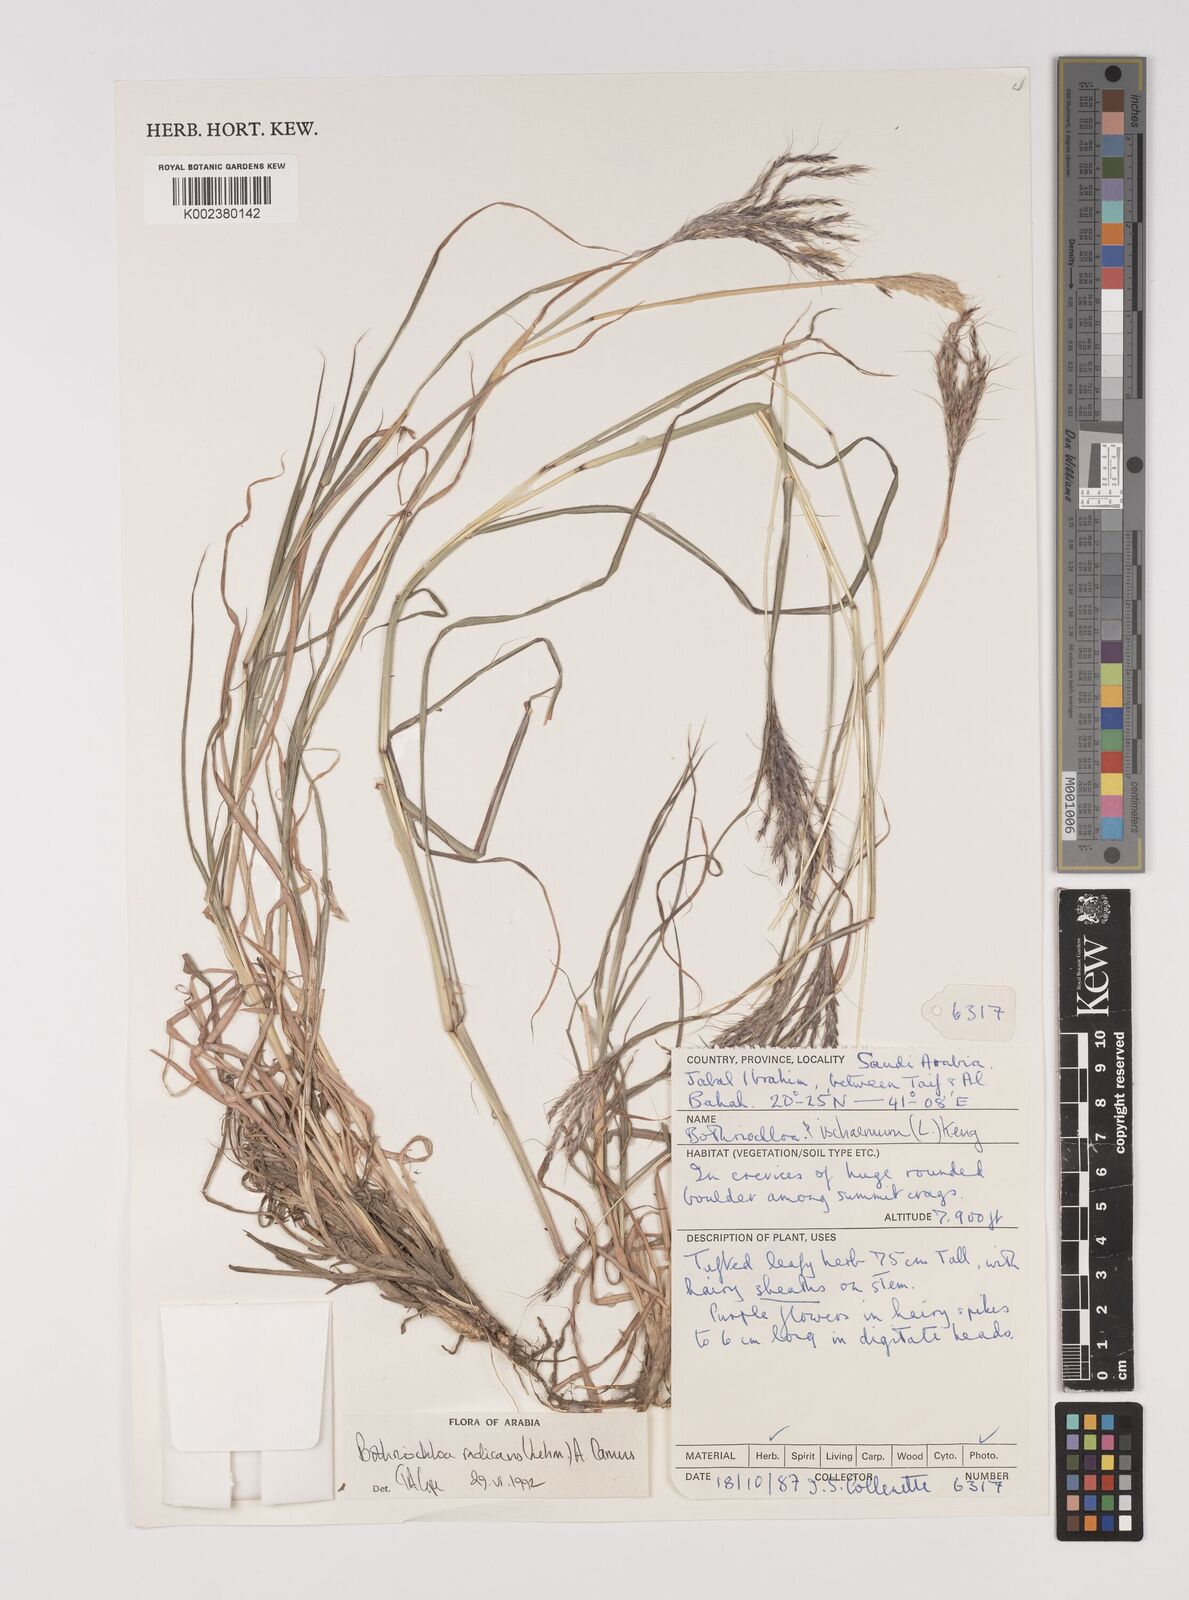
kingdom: Plantae
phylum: Tracheophyta
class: Liliopsida
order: Poales
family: Poaceae
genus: Bothriochloa
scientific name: Bothriochloa radicans
